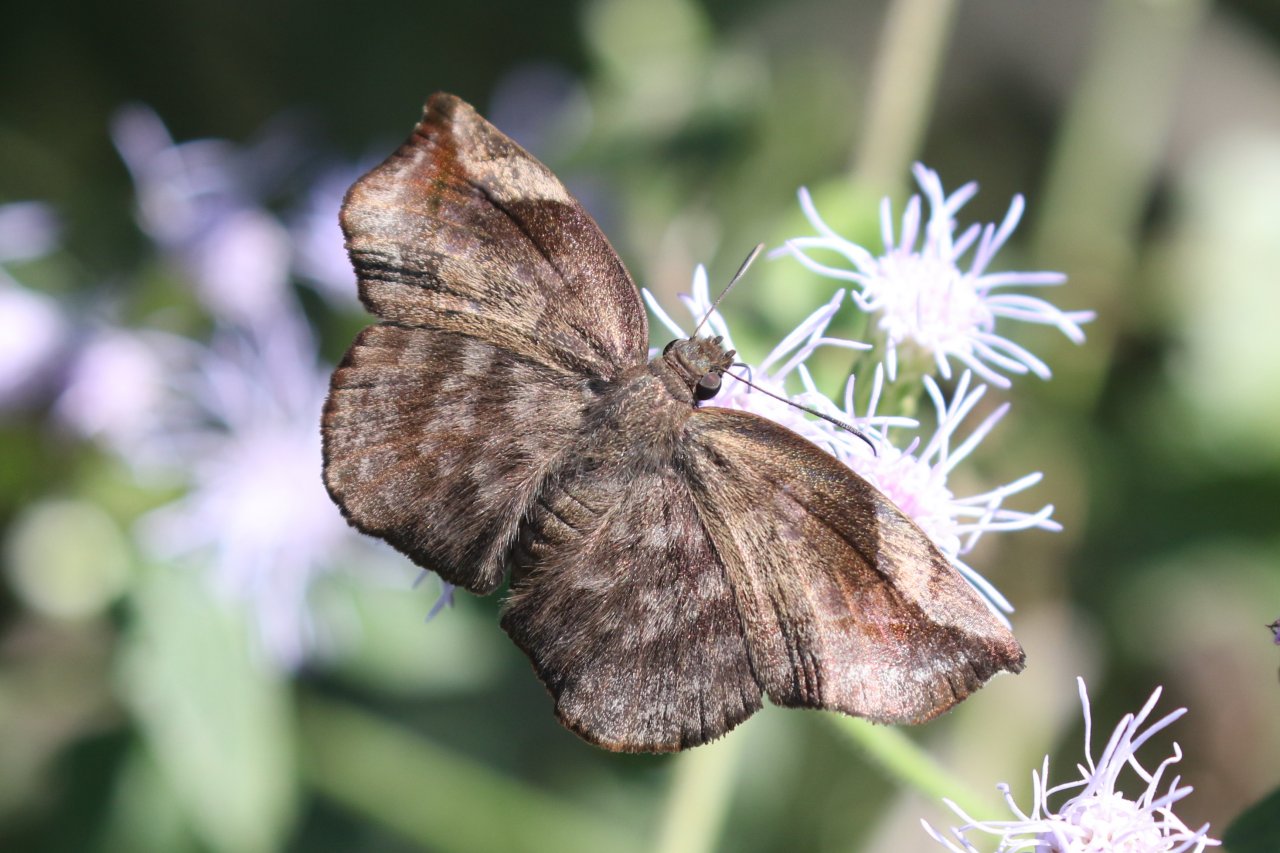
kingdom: Animalia
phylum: Arthropoda
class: Insecta
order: Lepidoptera
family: Hesperiidae
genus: Achlyodes
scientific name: Achlyodes thraso
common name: Sickle-winged Skipper
